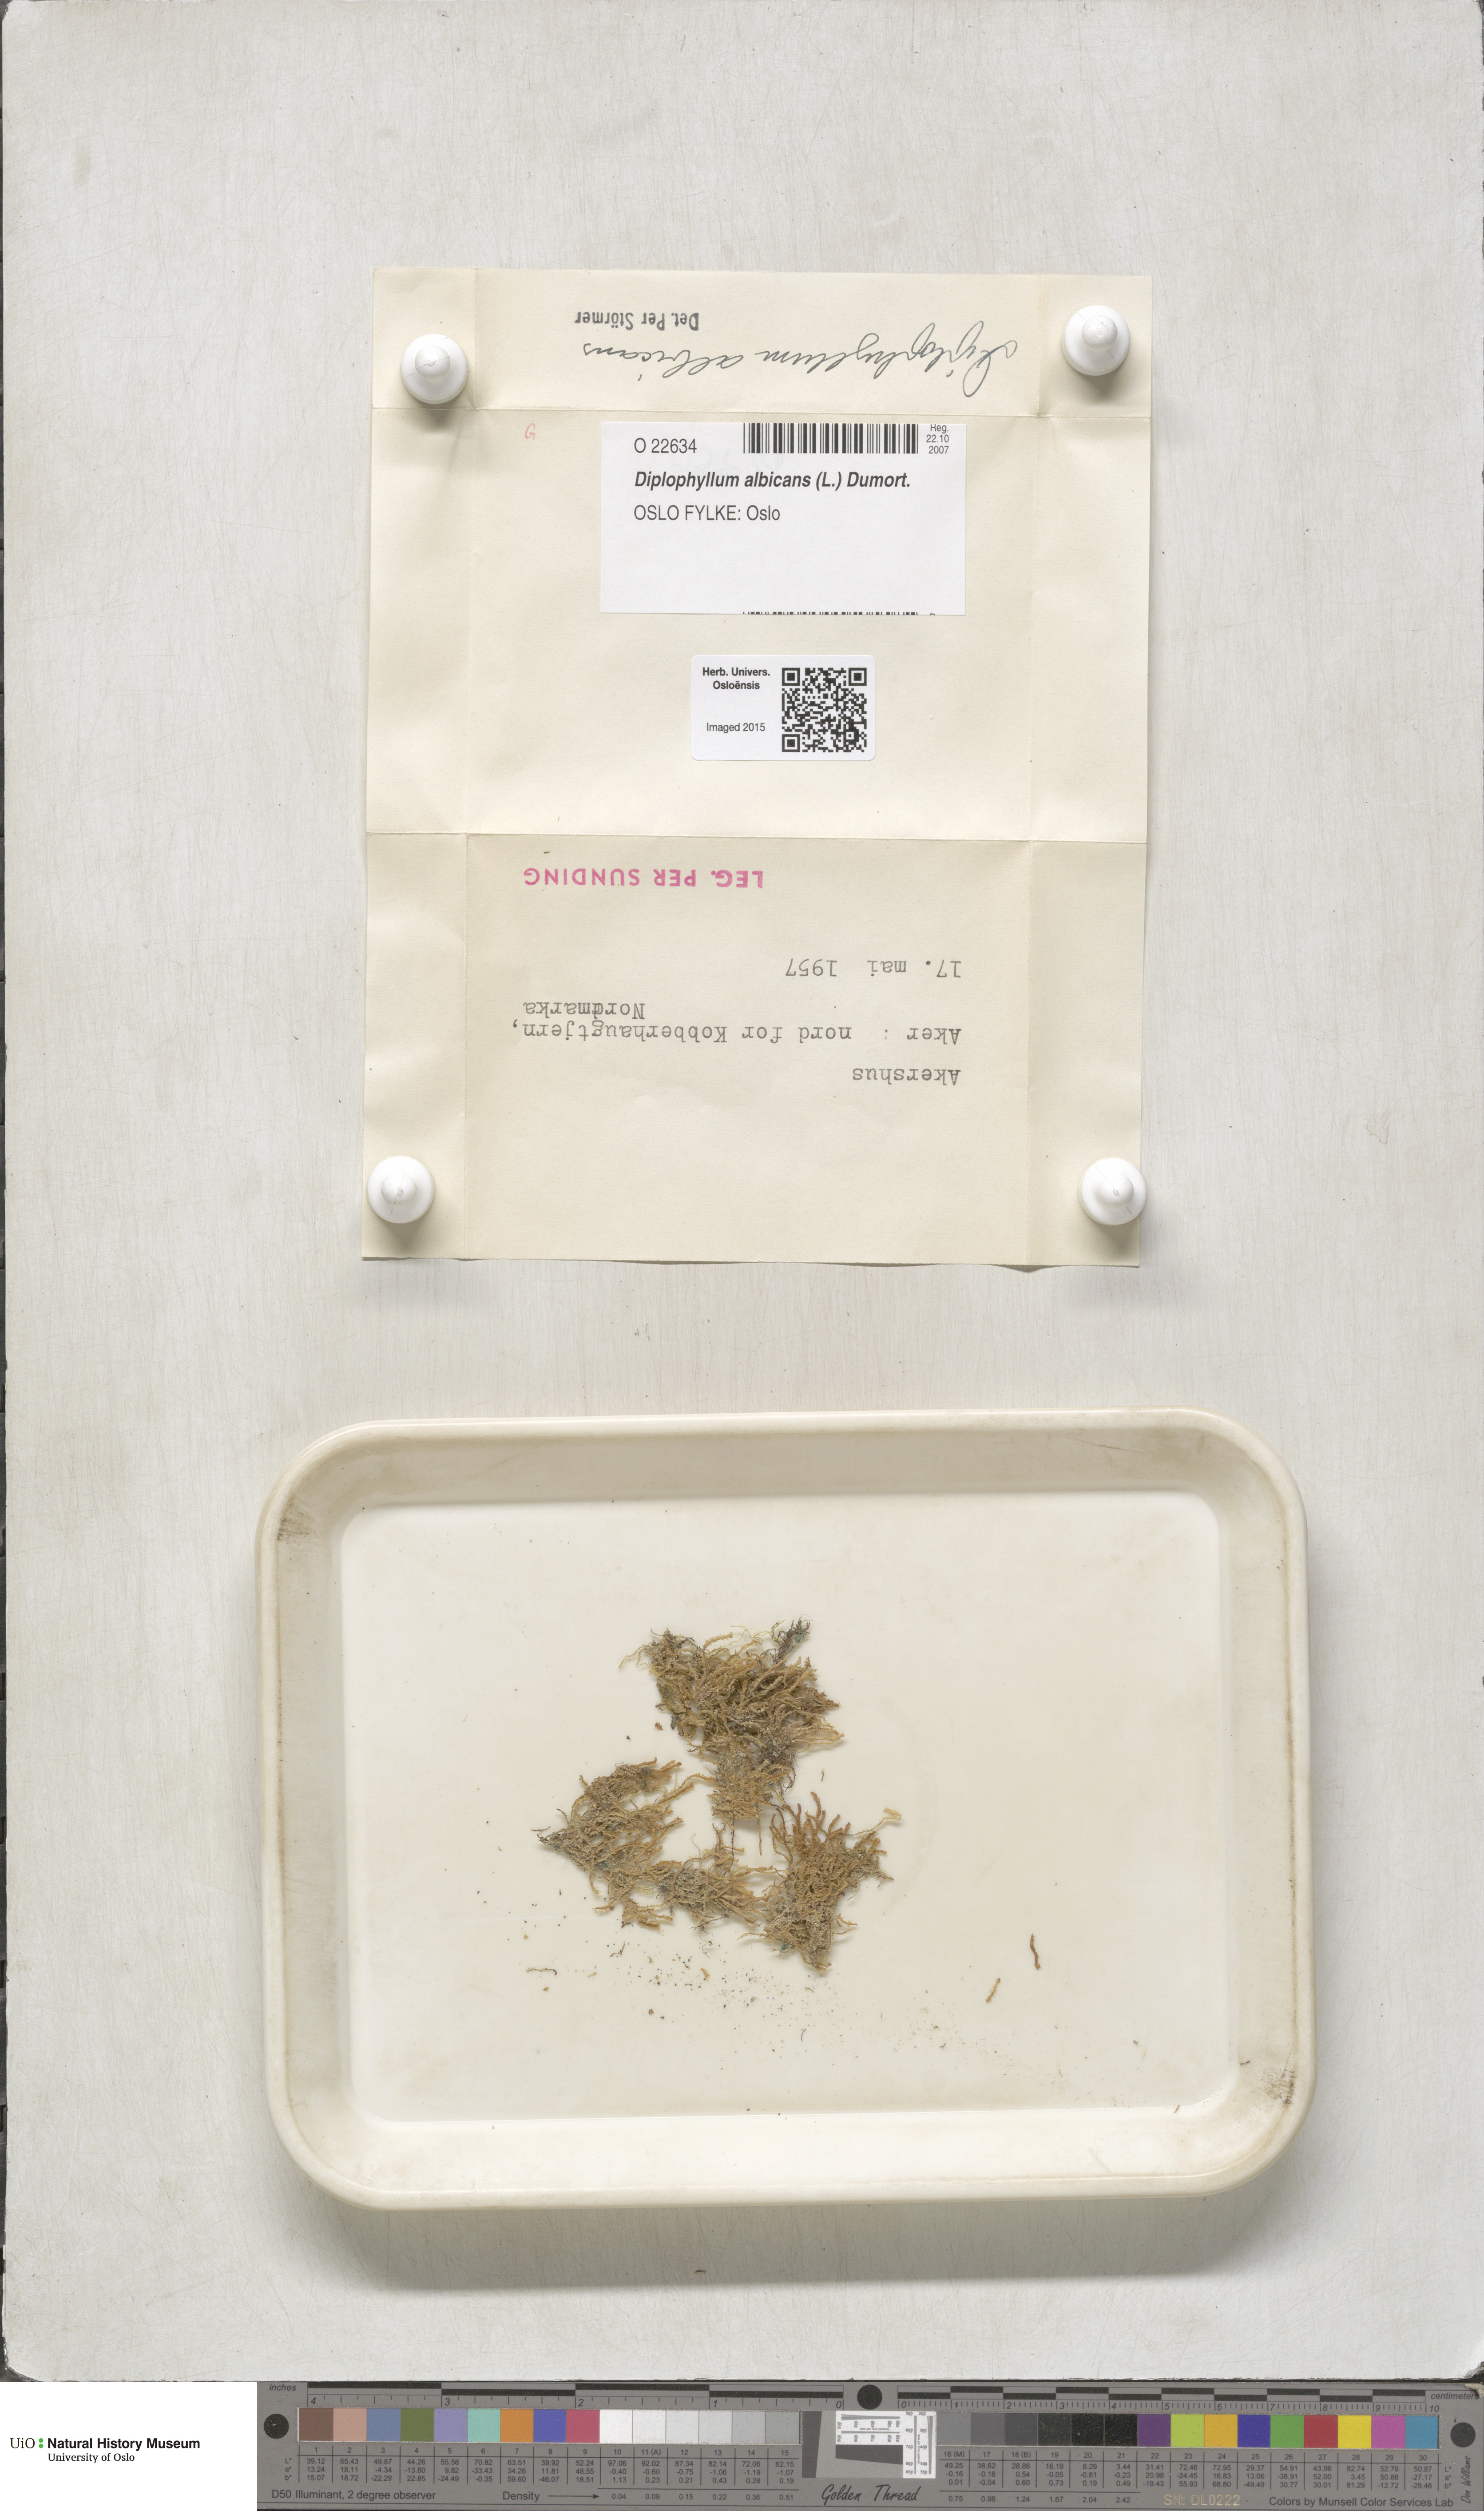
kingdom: Plantae
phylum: Marchantiophyta
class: Jungermanniopsida
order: Jungermanniales
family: Scapaniaceae
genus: Diplophyllum
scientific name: Diplophyllum albicans
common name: White earwort
